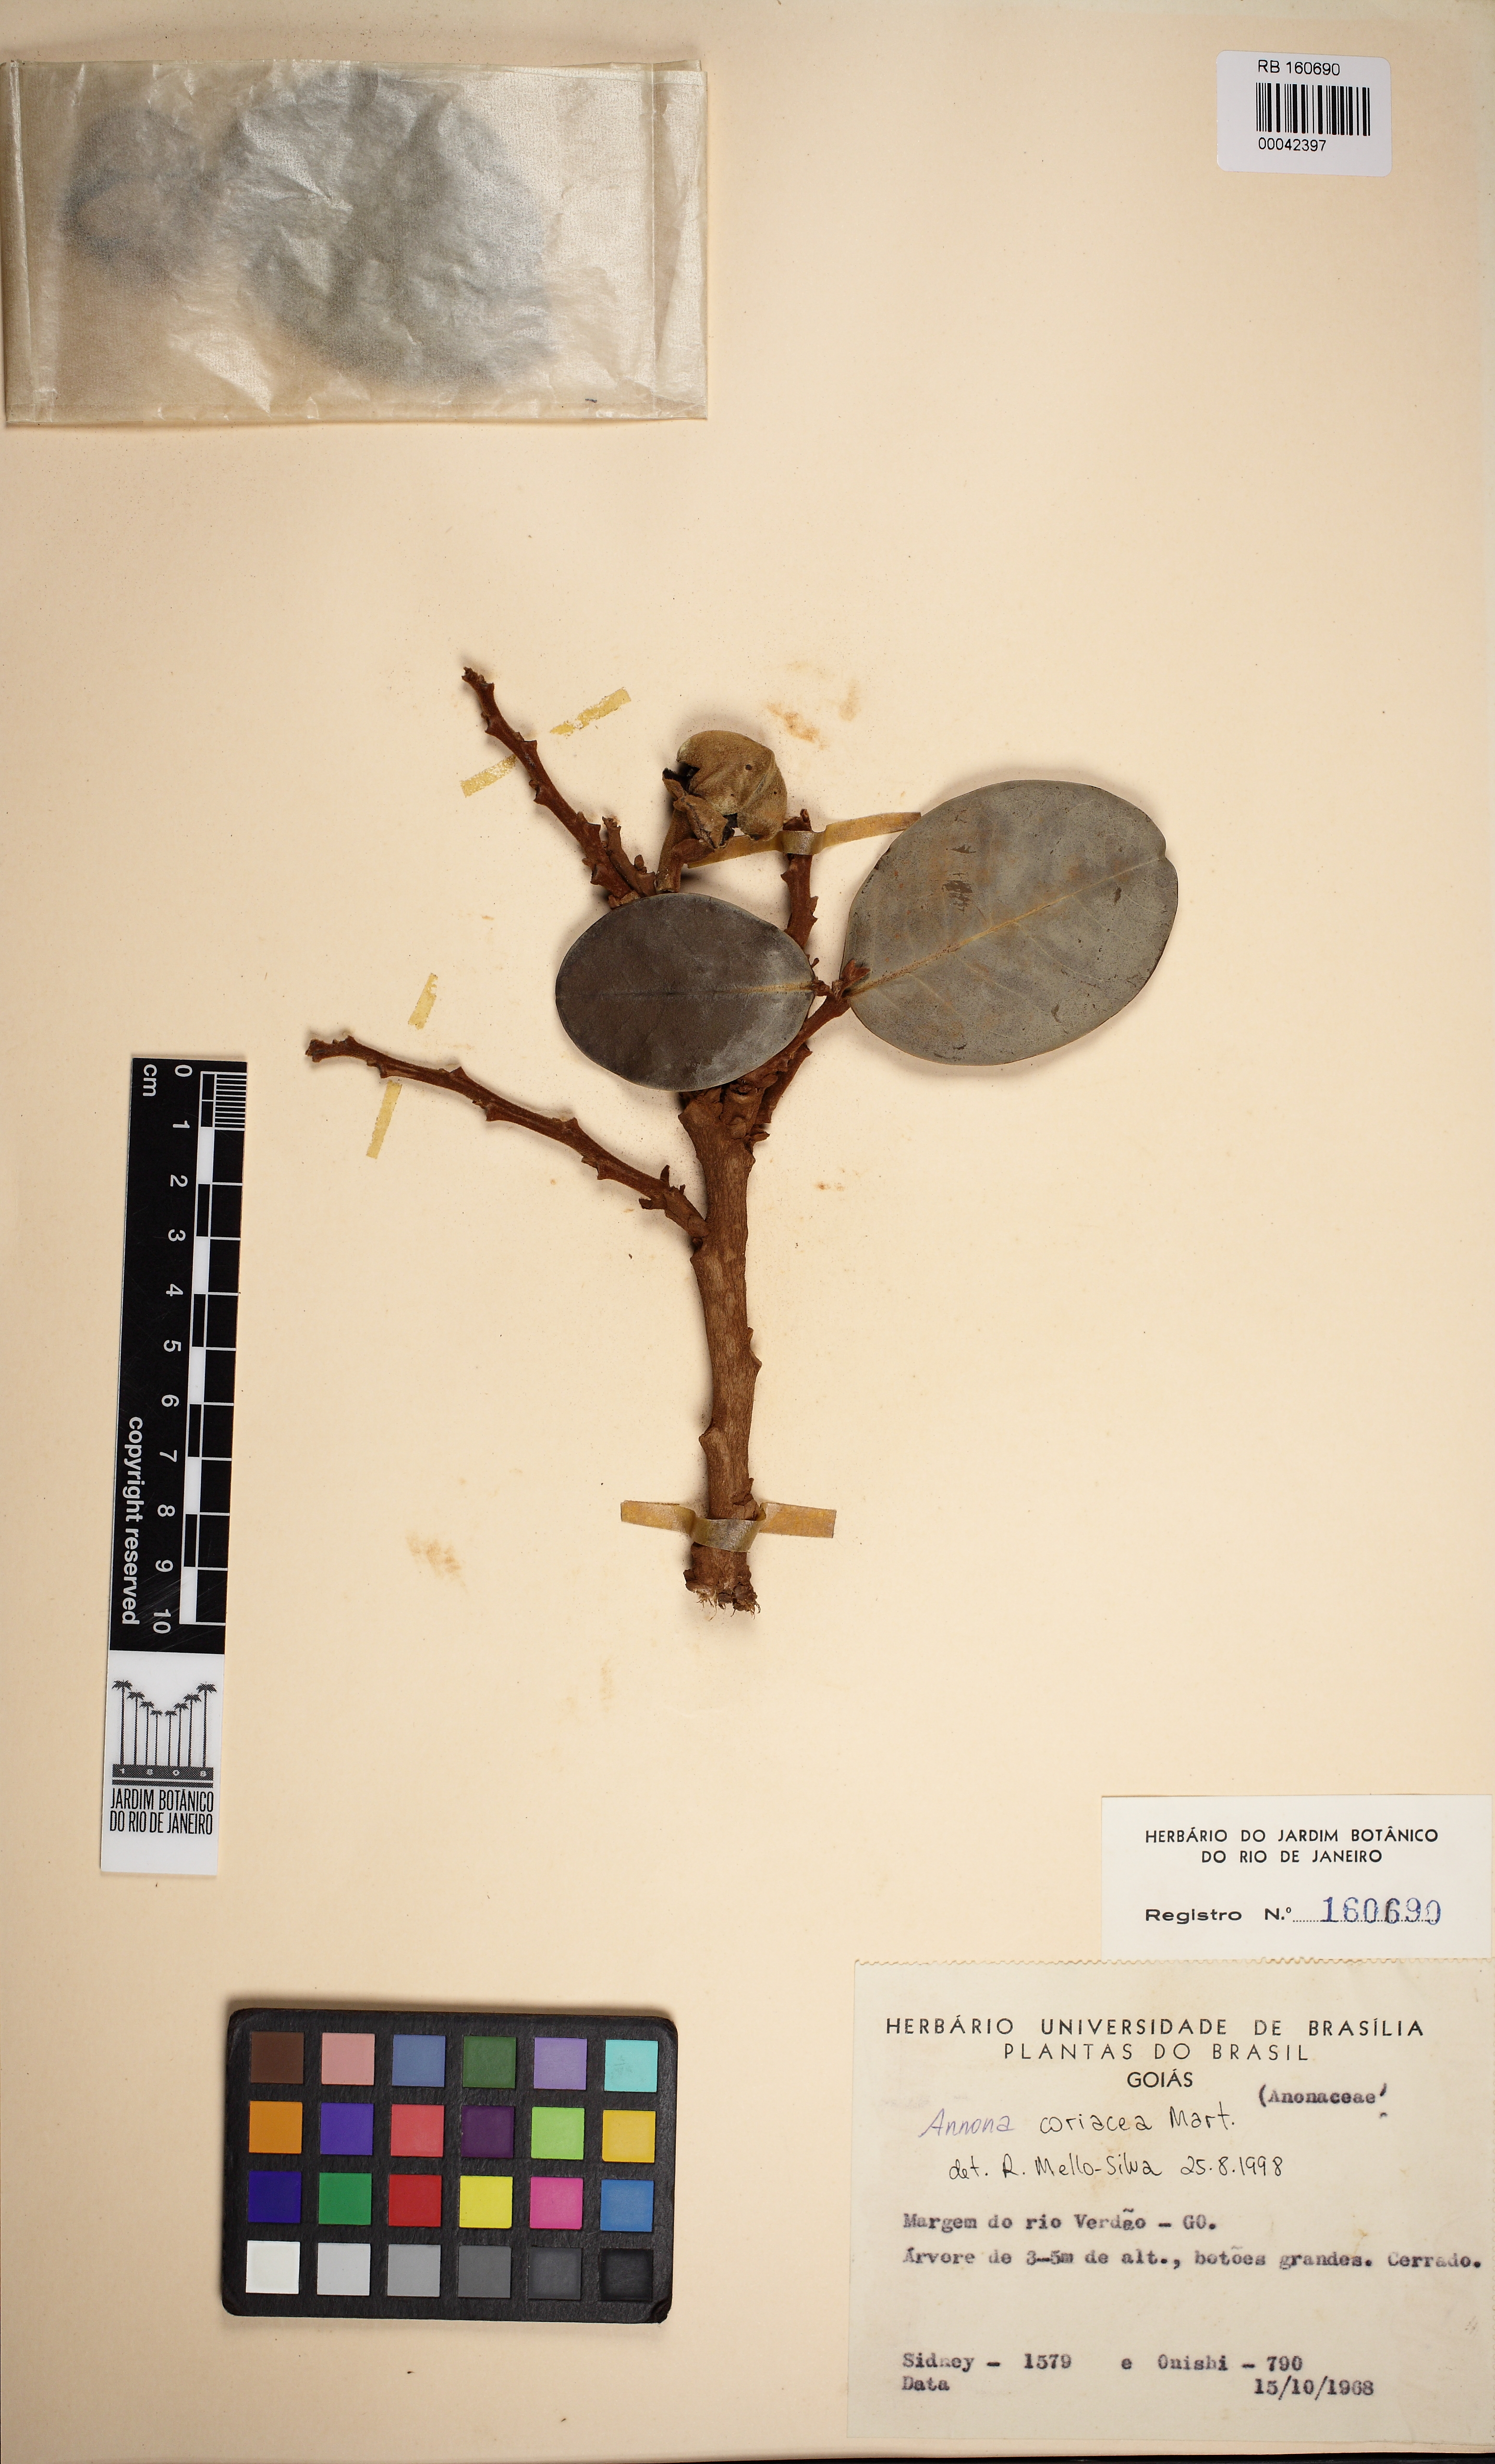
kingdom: Plantae
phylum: Tracheophyta
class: Magnoliopsida
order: Magnoliales
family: Annonaceae
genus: Annona
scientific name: Annona coriacea
